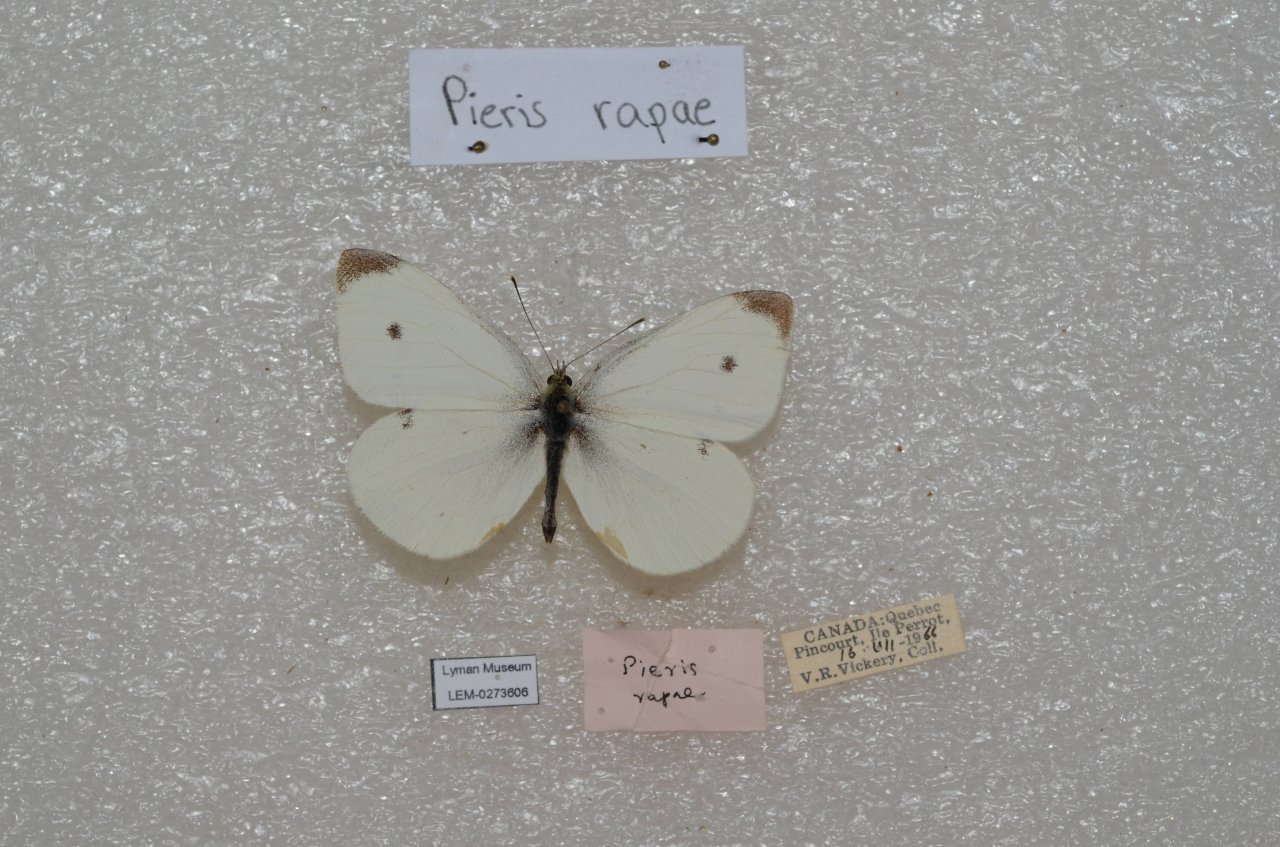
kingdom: Animalia
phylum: Arthropoda
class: Insecta
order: Lepidoptera
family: Pieridae
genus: Pieris
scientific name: Pieris rapae
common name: Cabbage White
